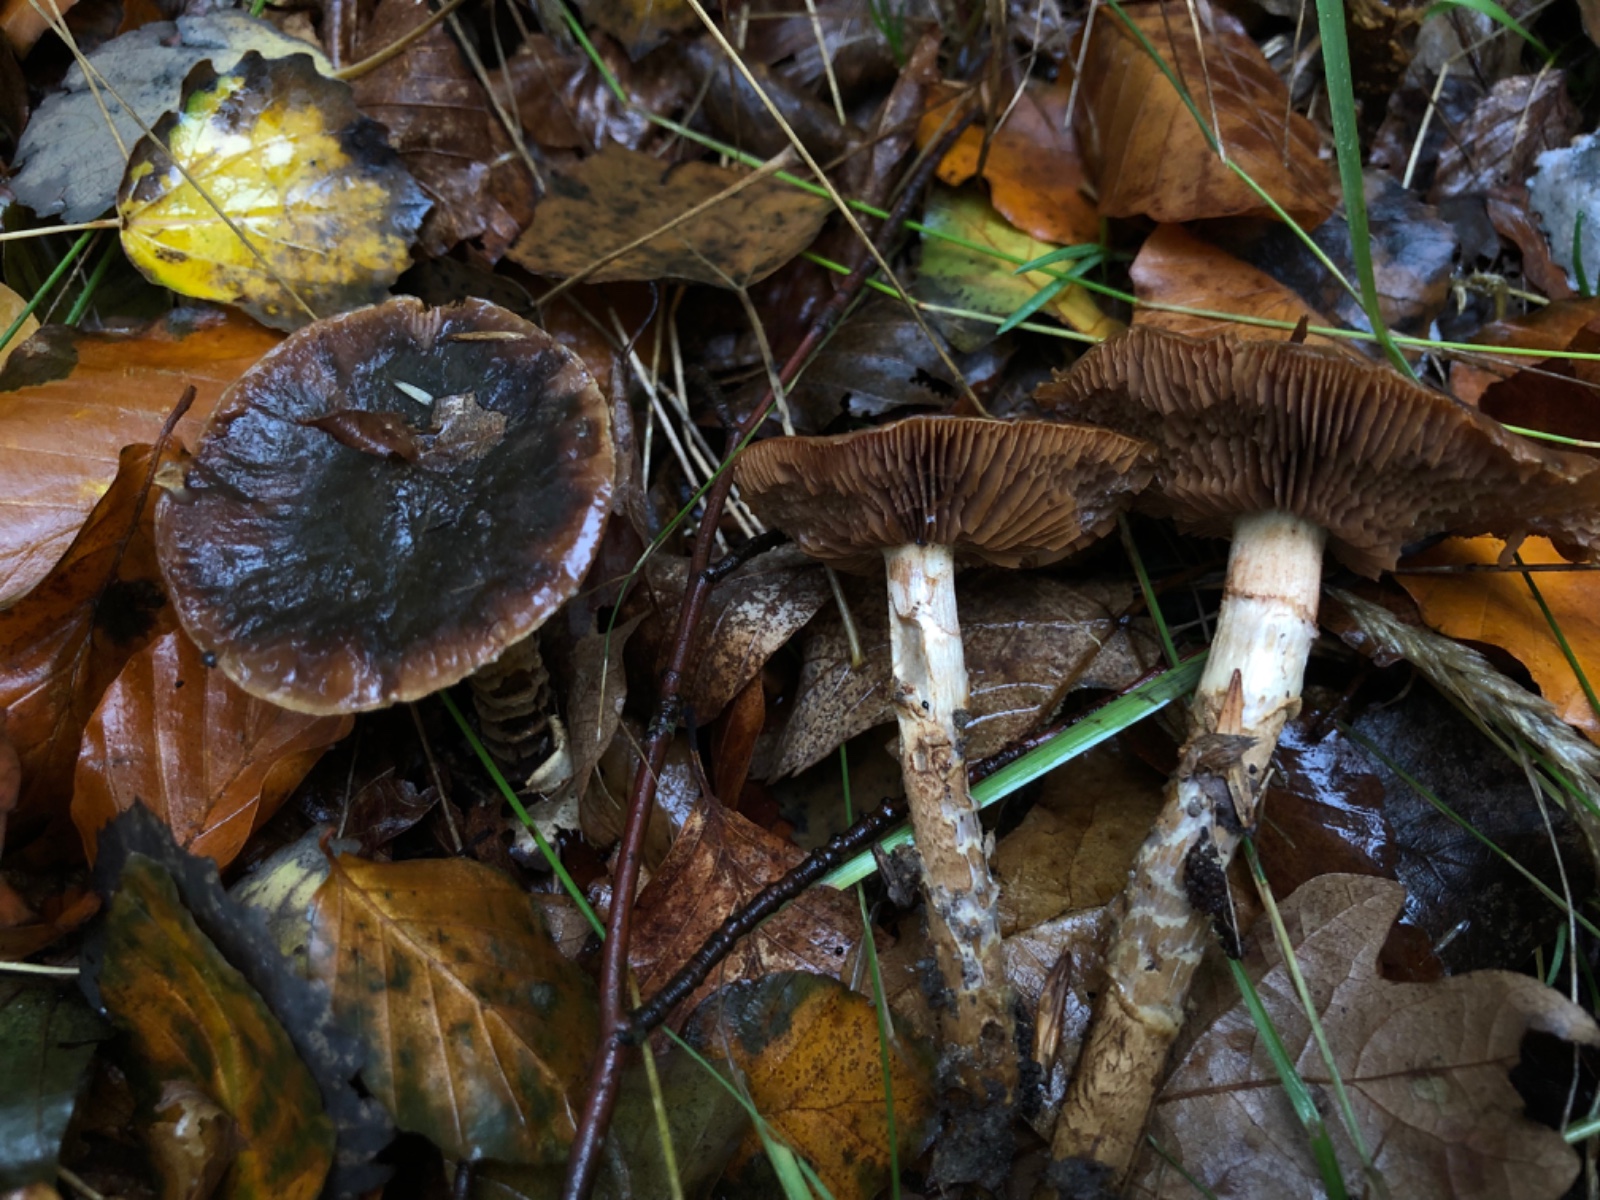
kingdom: Fungi
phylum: Basidiomycota
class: Agaricomycetes
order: Agaricales
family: Cortinariaceae
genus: Cortinarius
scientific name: Cortinarius trivialis
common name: Girdled webcap
